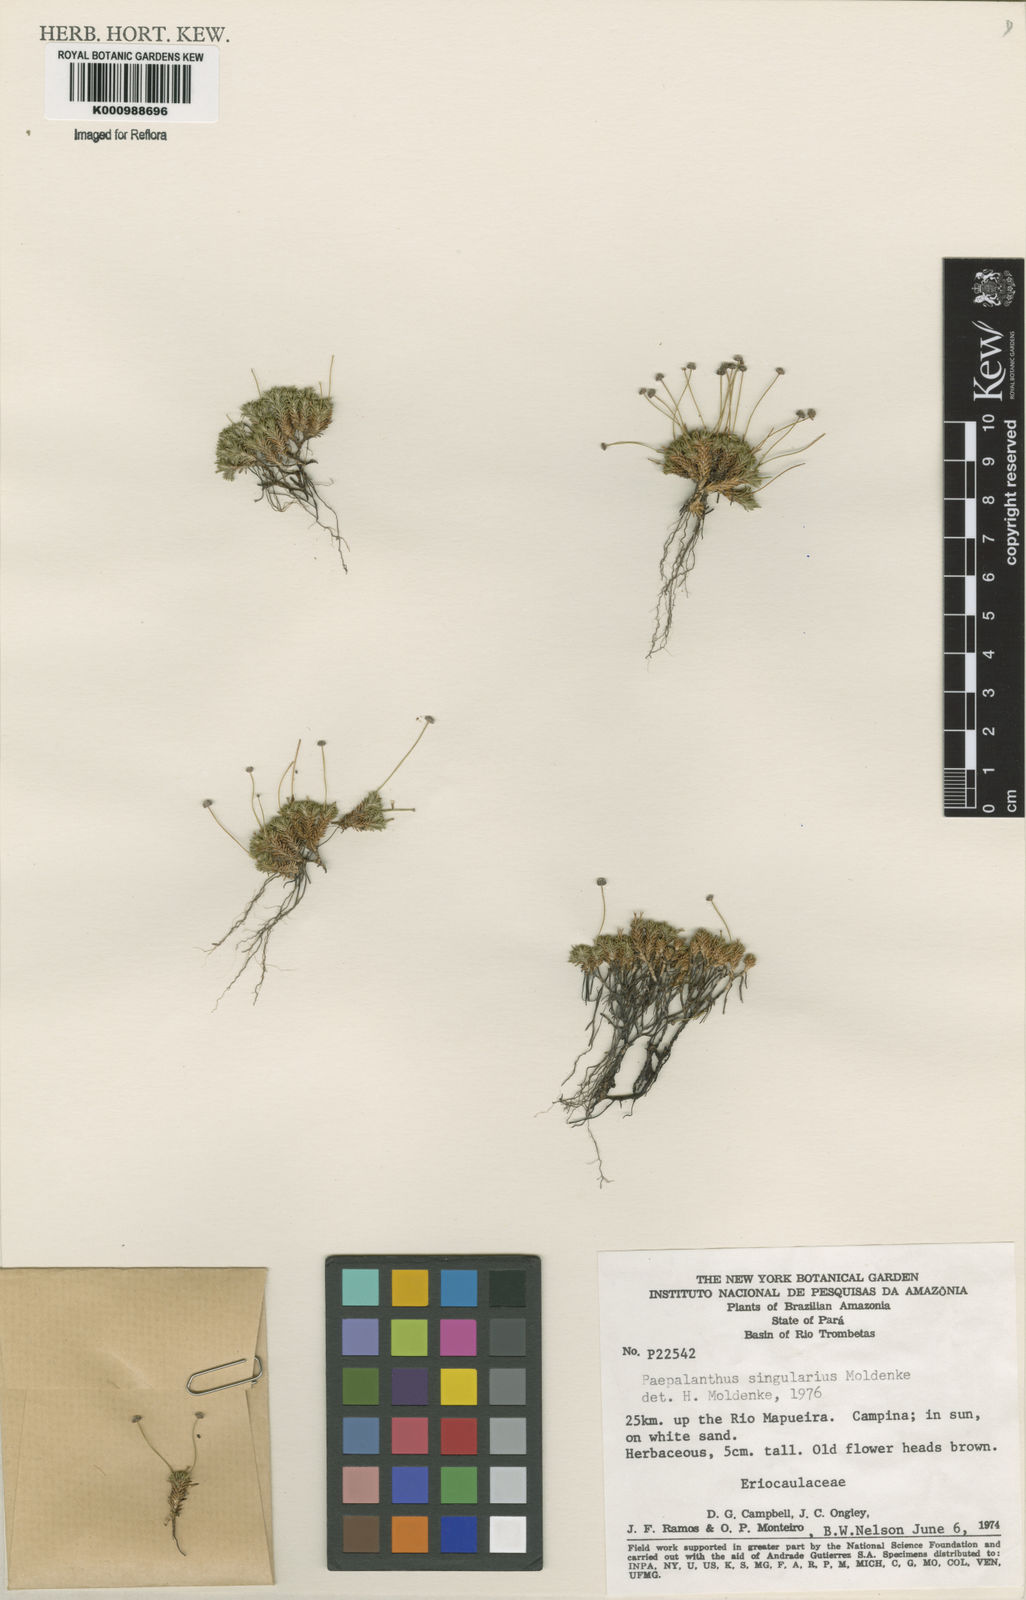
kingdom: Plantae
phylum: Tracheophyta
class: Liliopsida
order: Poales
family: Eriocaulaceae
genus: Paepalanthus
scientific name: Paepalanthus
